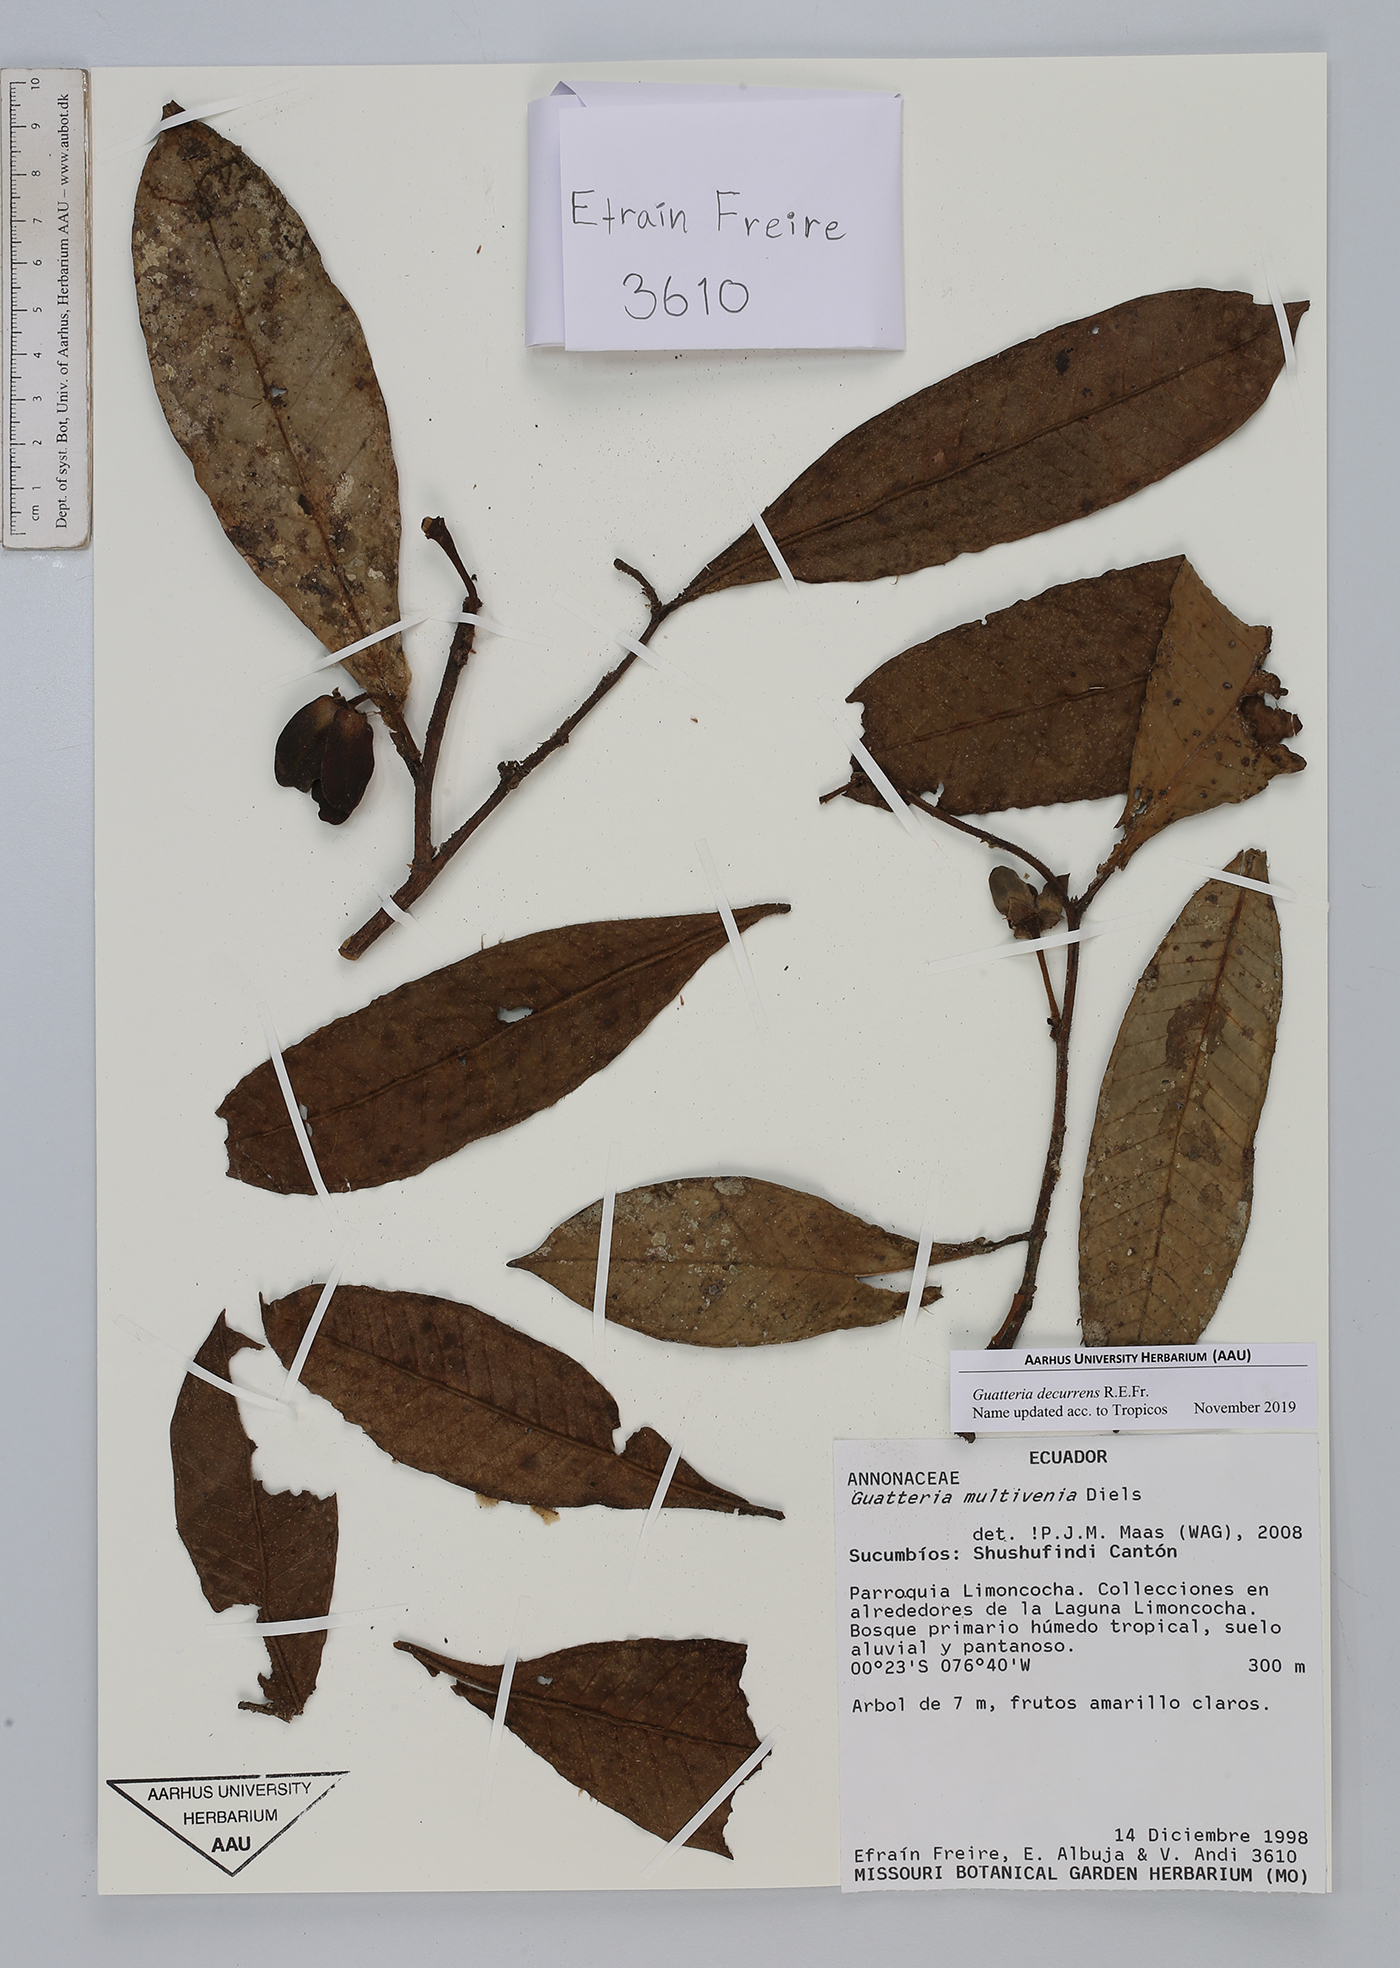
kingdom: Plantae
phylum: Tracheophyta
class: Magnoliopsida
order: Magnoliales
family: Annonaceae
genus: Guatteria
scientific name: Guatteria decurrens
